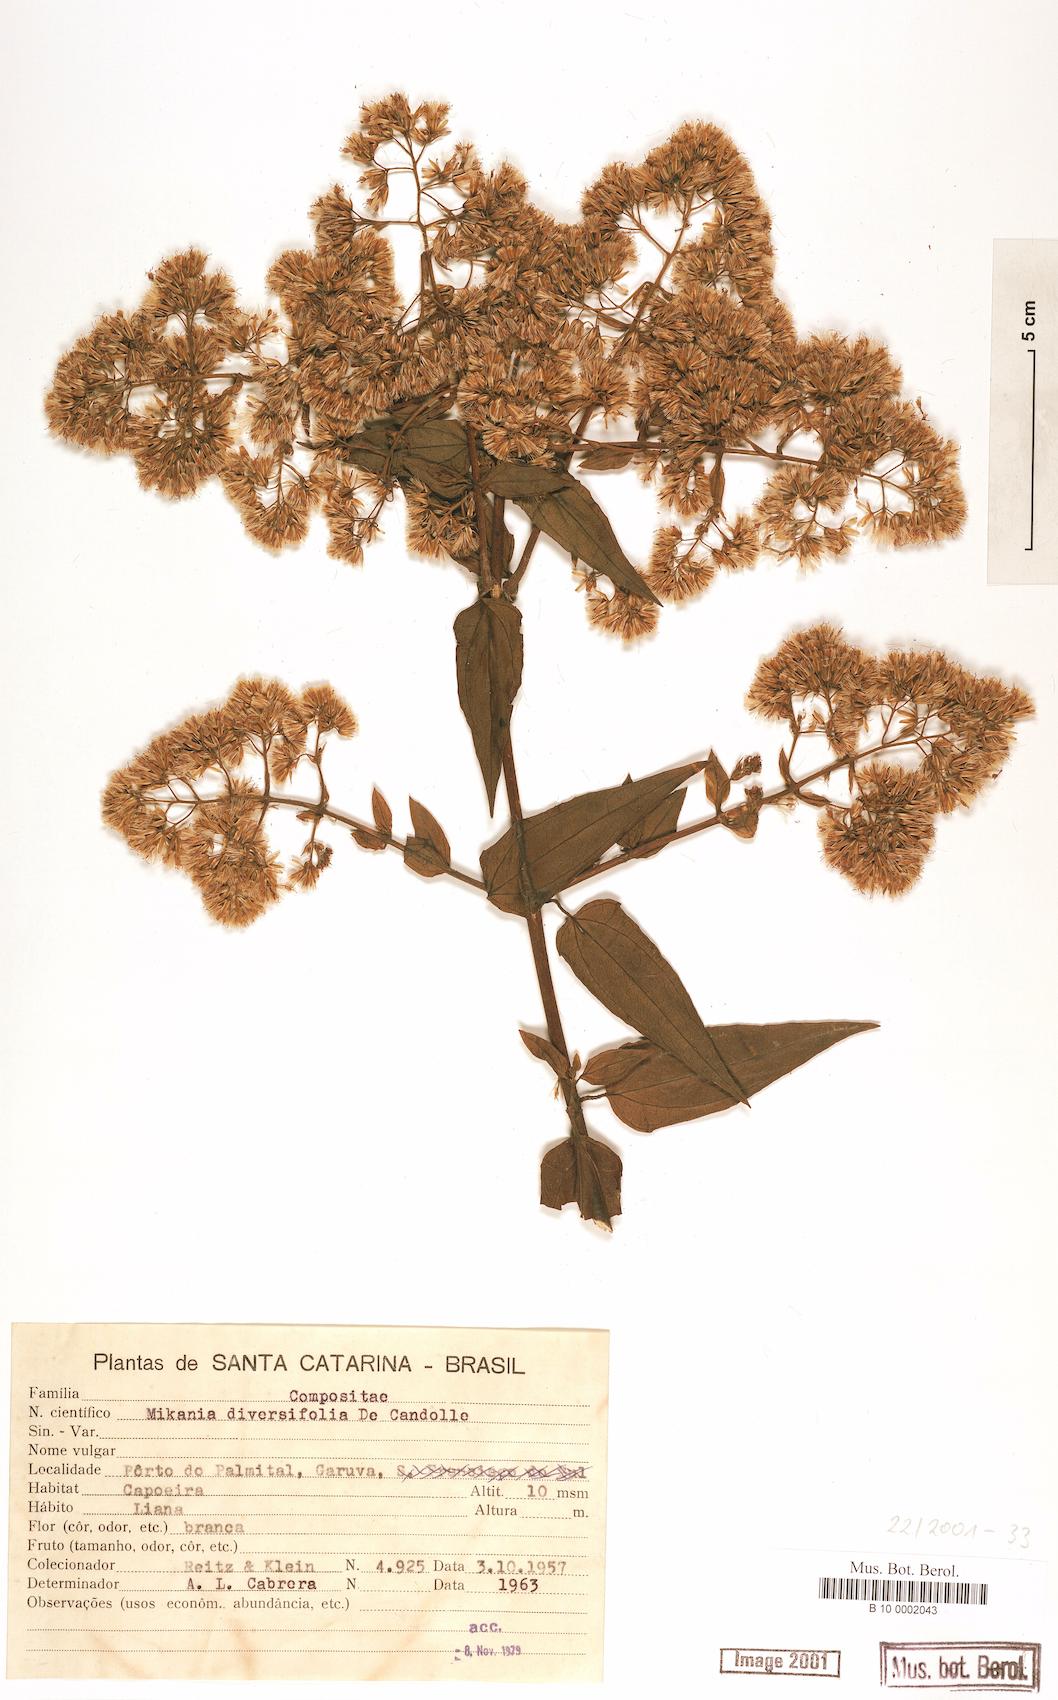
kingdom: Plantae
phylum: Tracheophyta
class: Magnoliopsida
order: Asterales
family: Asteraceae
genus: Mikania
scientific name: Mikania diversifolia
